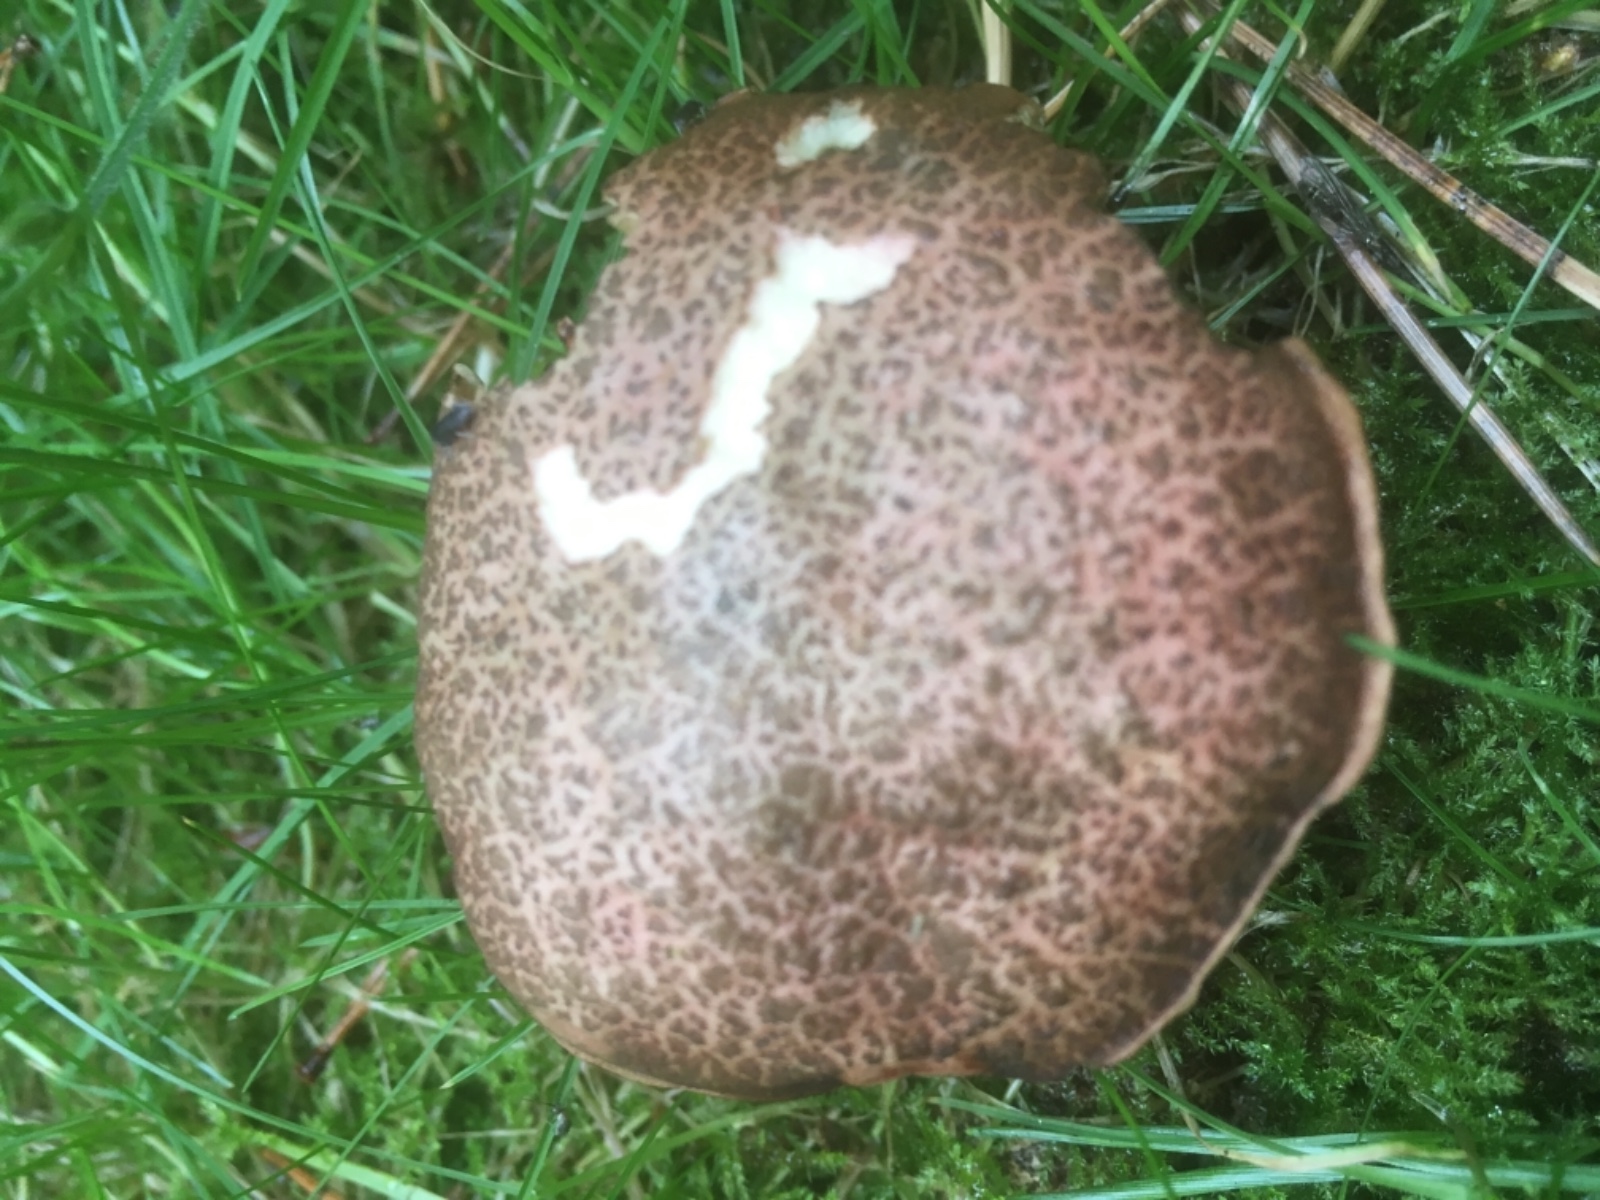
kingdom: Fungi
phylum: Basidiomycota
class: Agaricomycetes
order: Boletales
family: Boletaceae
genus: Xerocomellus
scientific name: Xerocomellus chrysenteron
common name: rødsprukken rørhat
